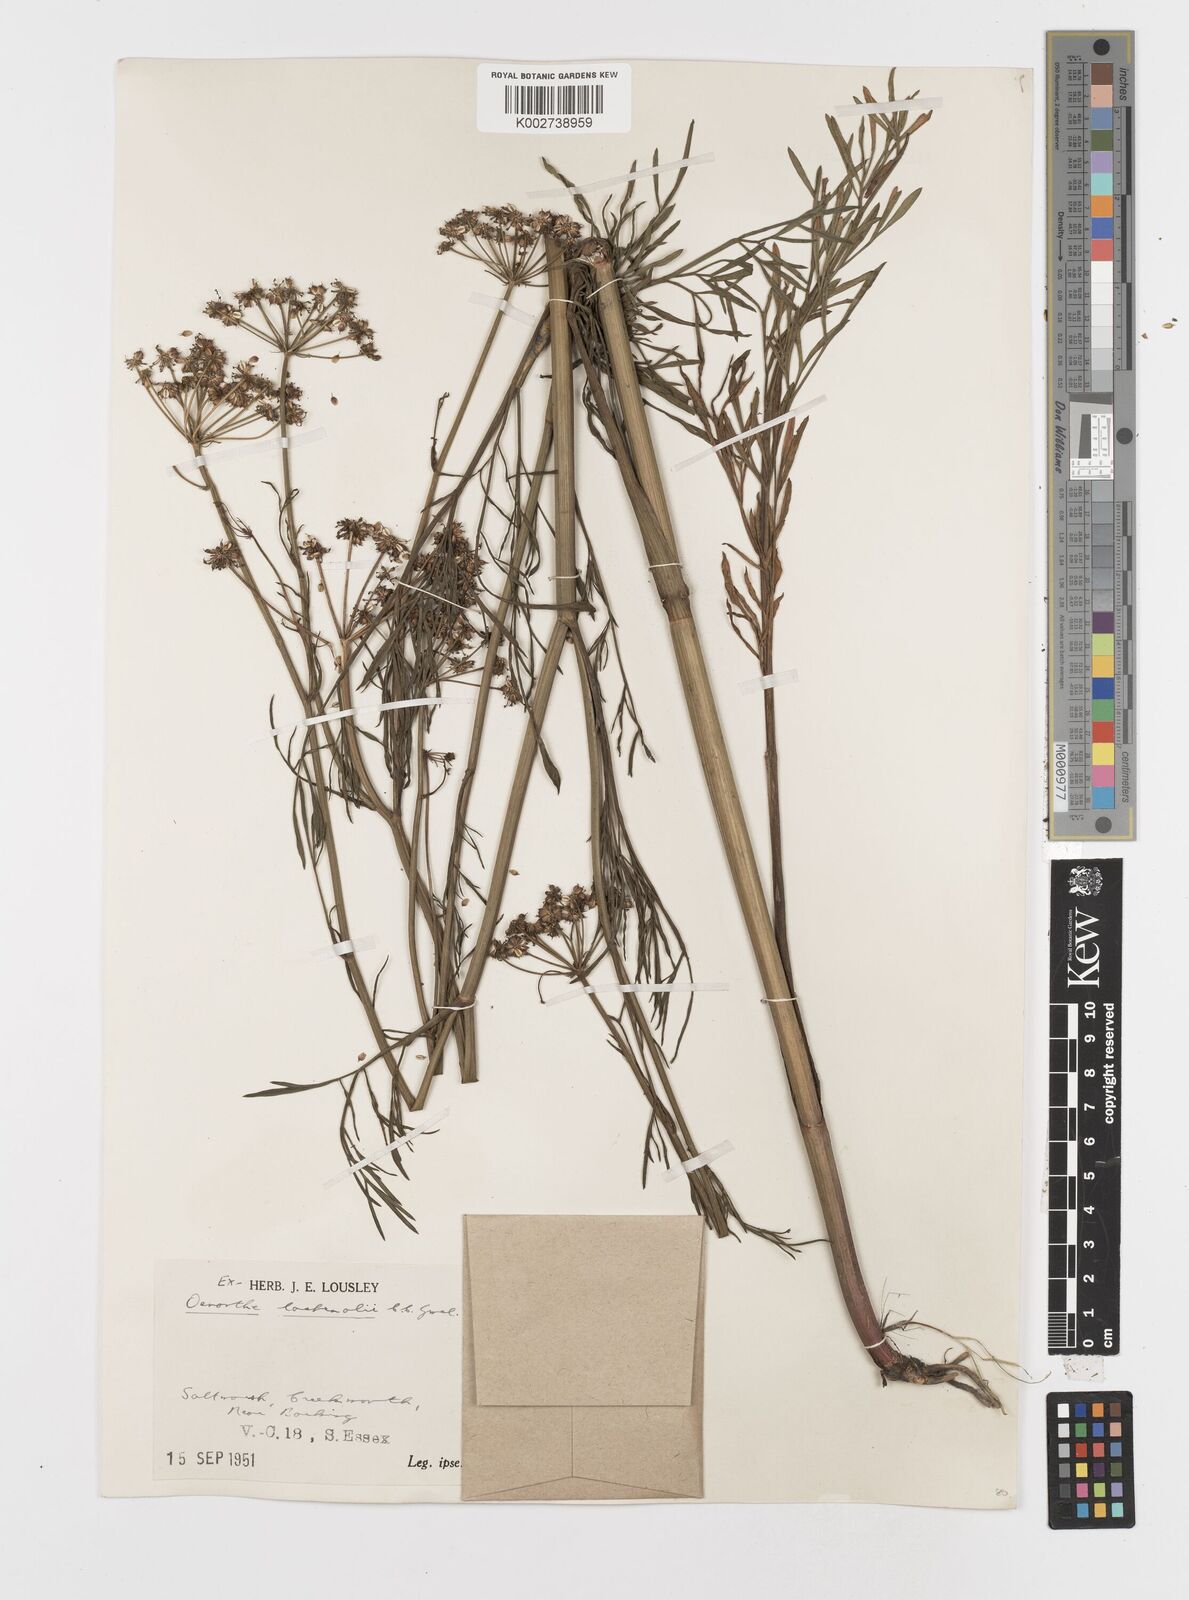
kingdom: Plantae
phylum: Tracheophyta
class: Magnoliopsida
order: Apiales
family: Apiaceae
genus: Oenanthe
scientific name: Oenanthe lachenalii
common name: Parsley water-dropwort
